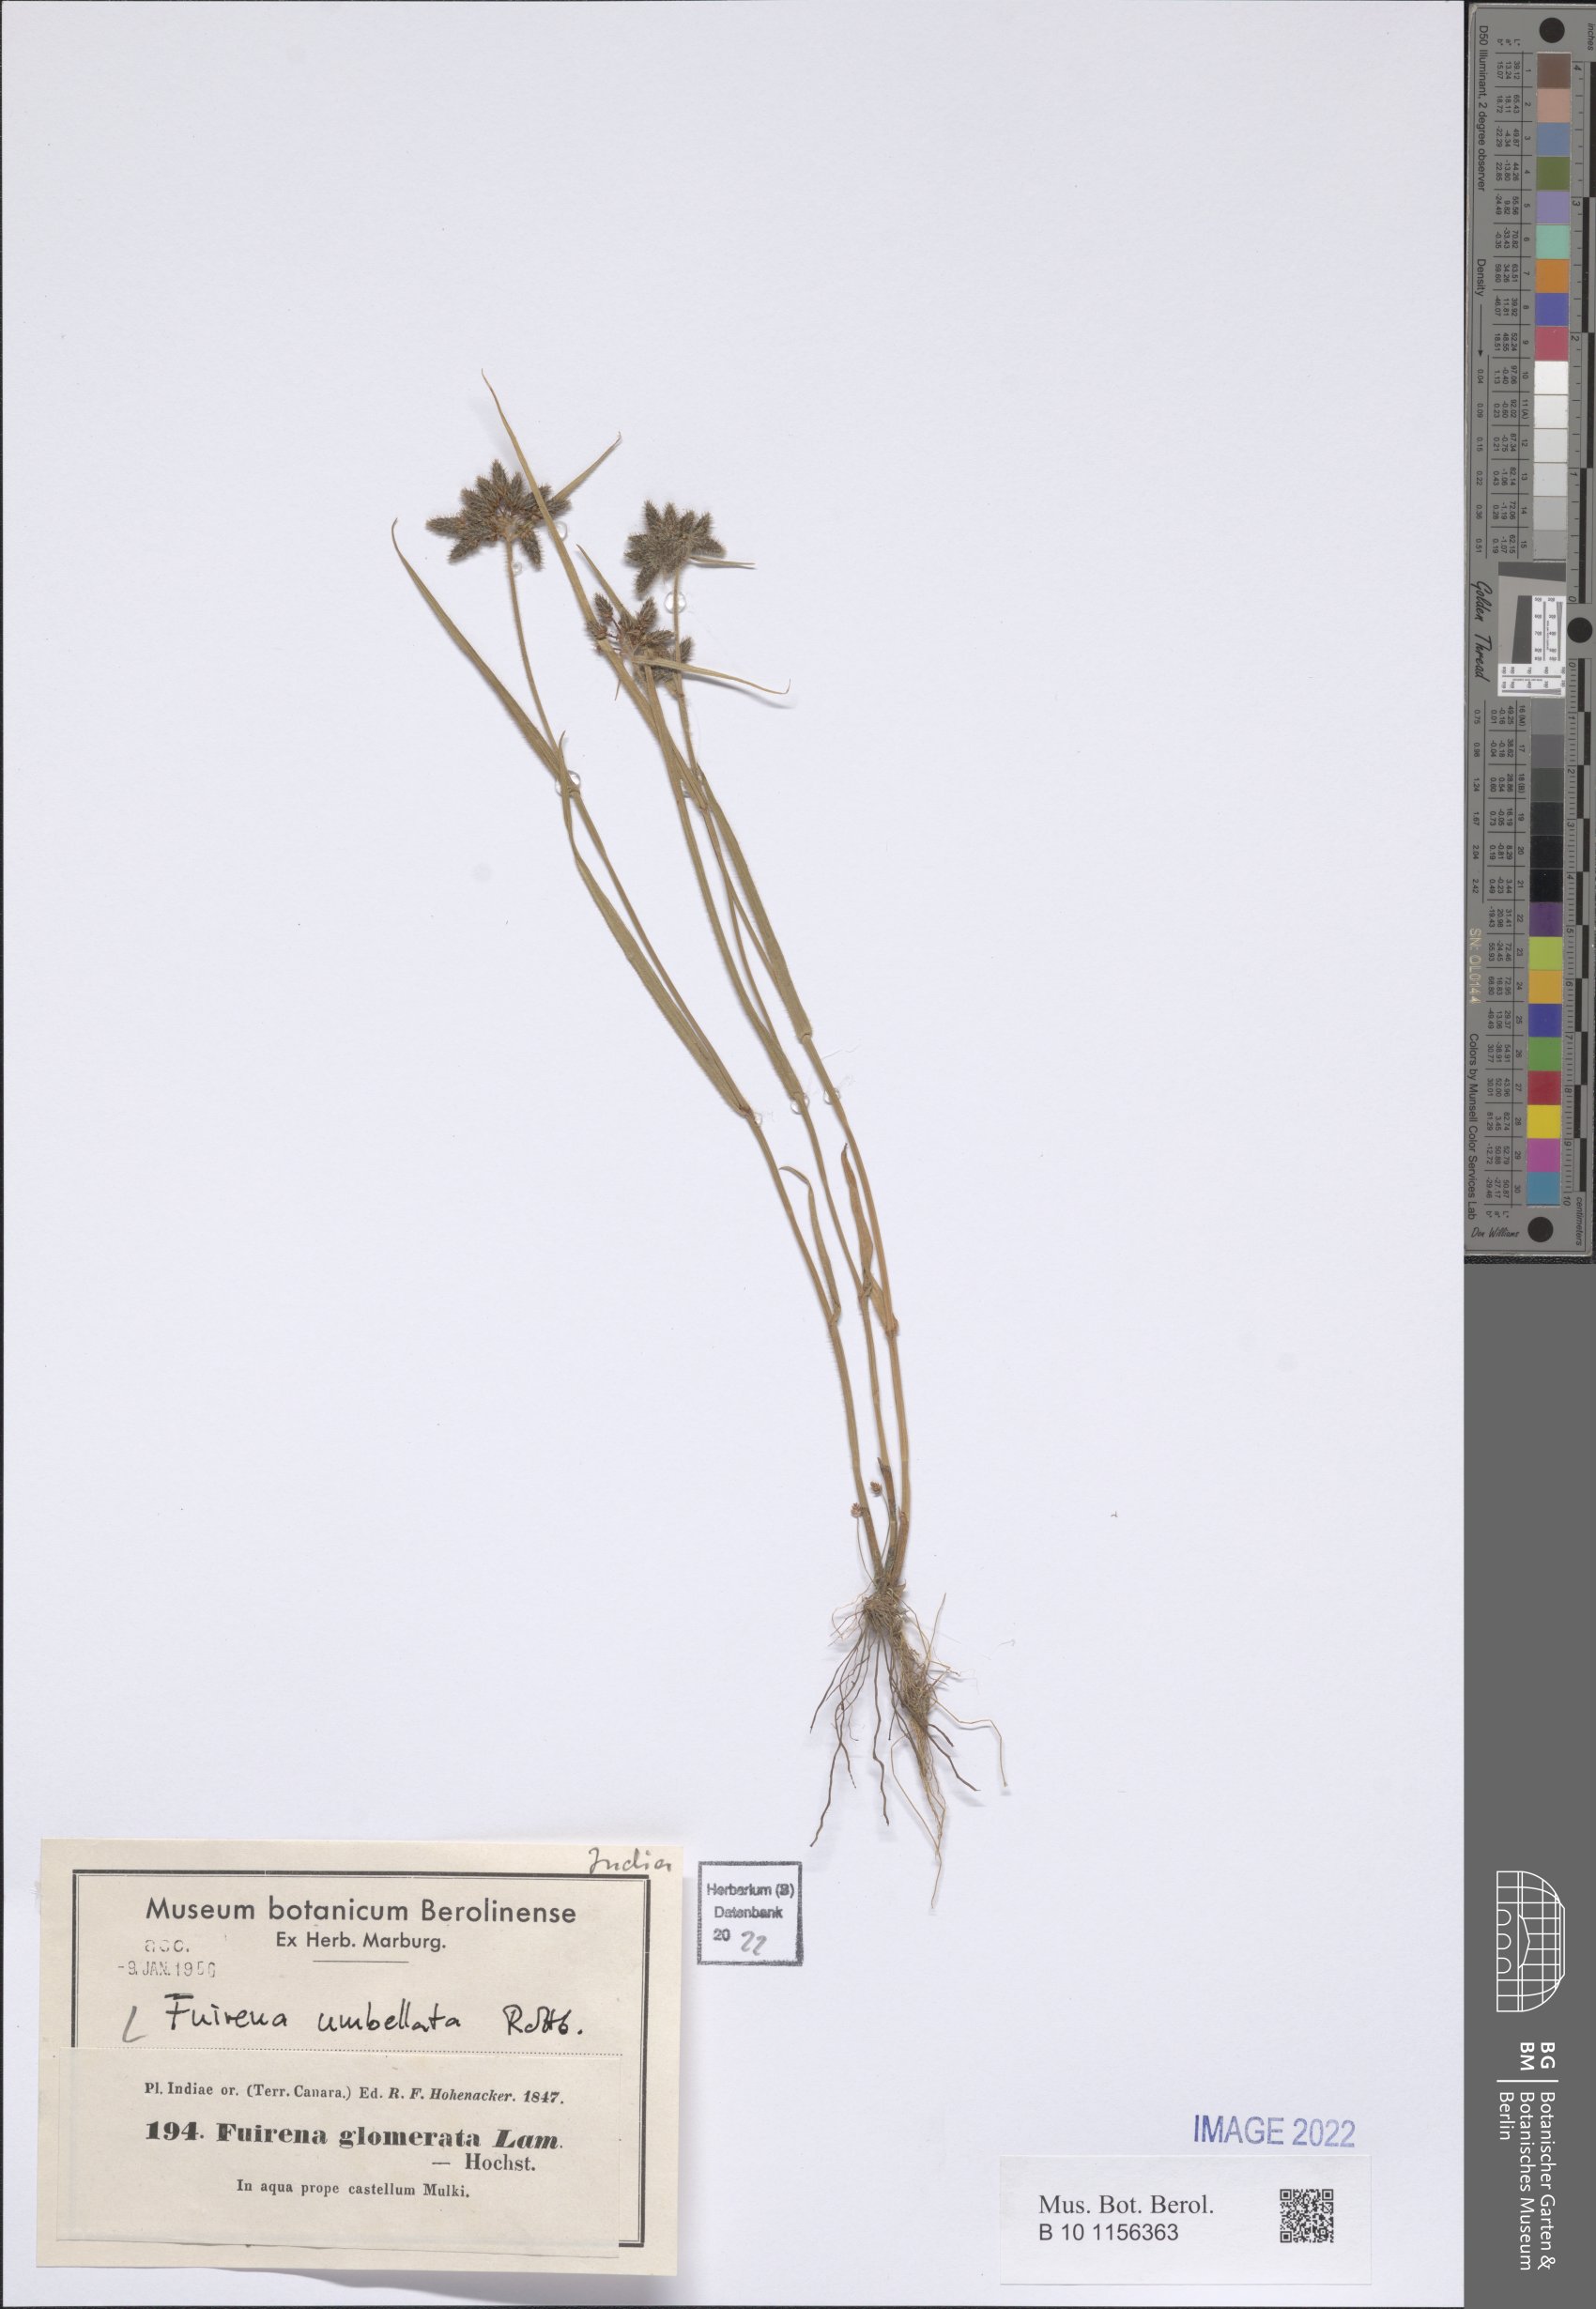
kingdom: Plantae
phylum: Tracheophyta
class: Liliopsida
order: Poales
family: Cyperaceae
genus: Fuirena
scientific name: Fuirena umbellata
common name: Yefen
